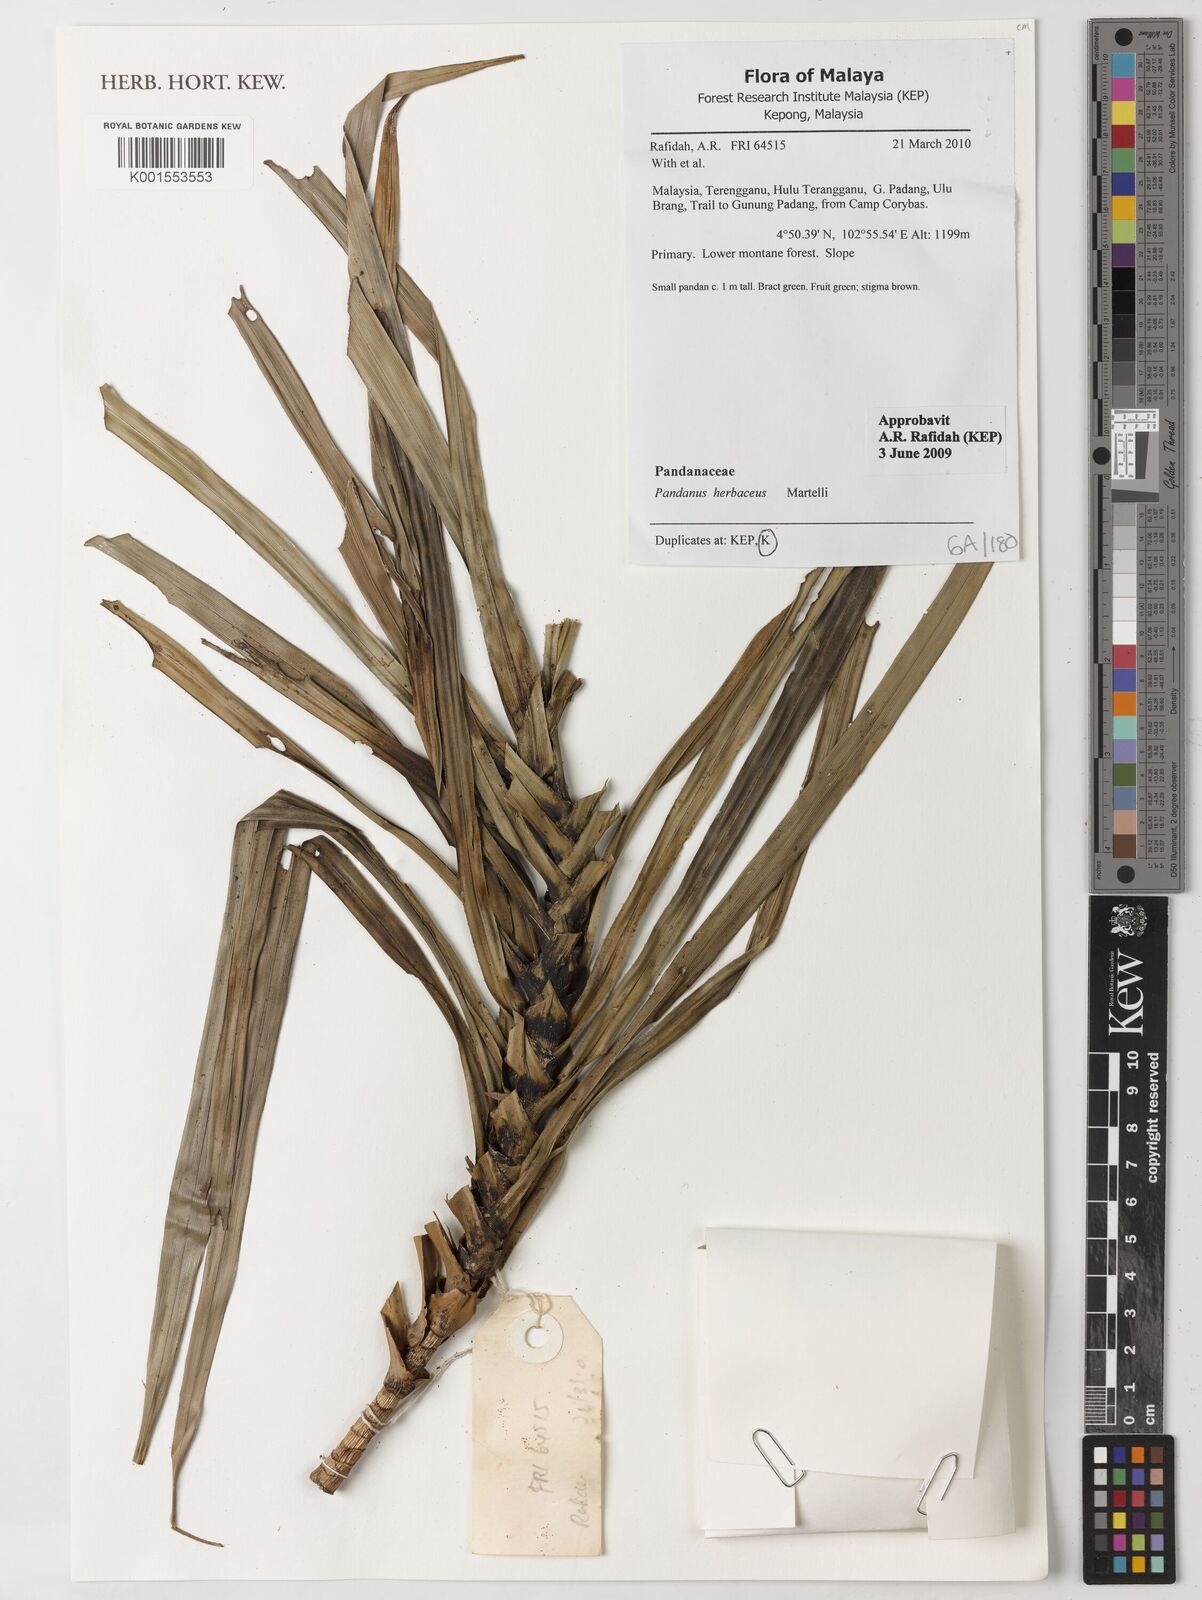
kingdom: Plantae
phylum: Tracheophyta
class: Liliopsida
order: Pandanales
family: Pandanaceae
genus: Benstonea
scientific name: Benstonea herbacea
